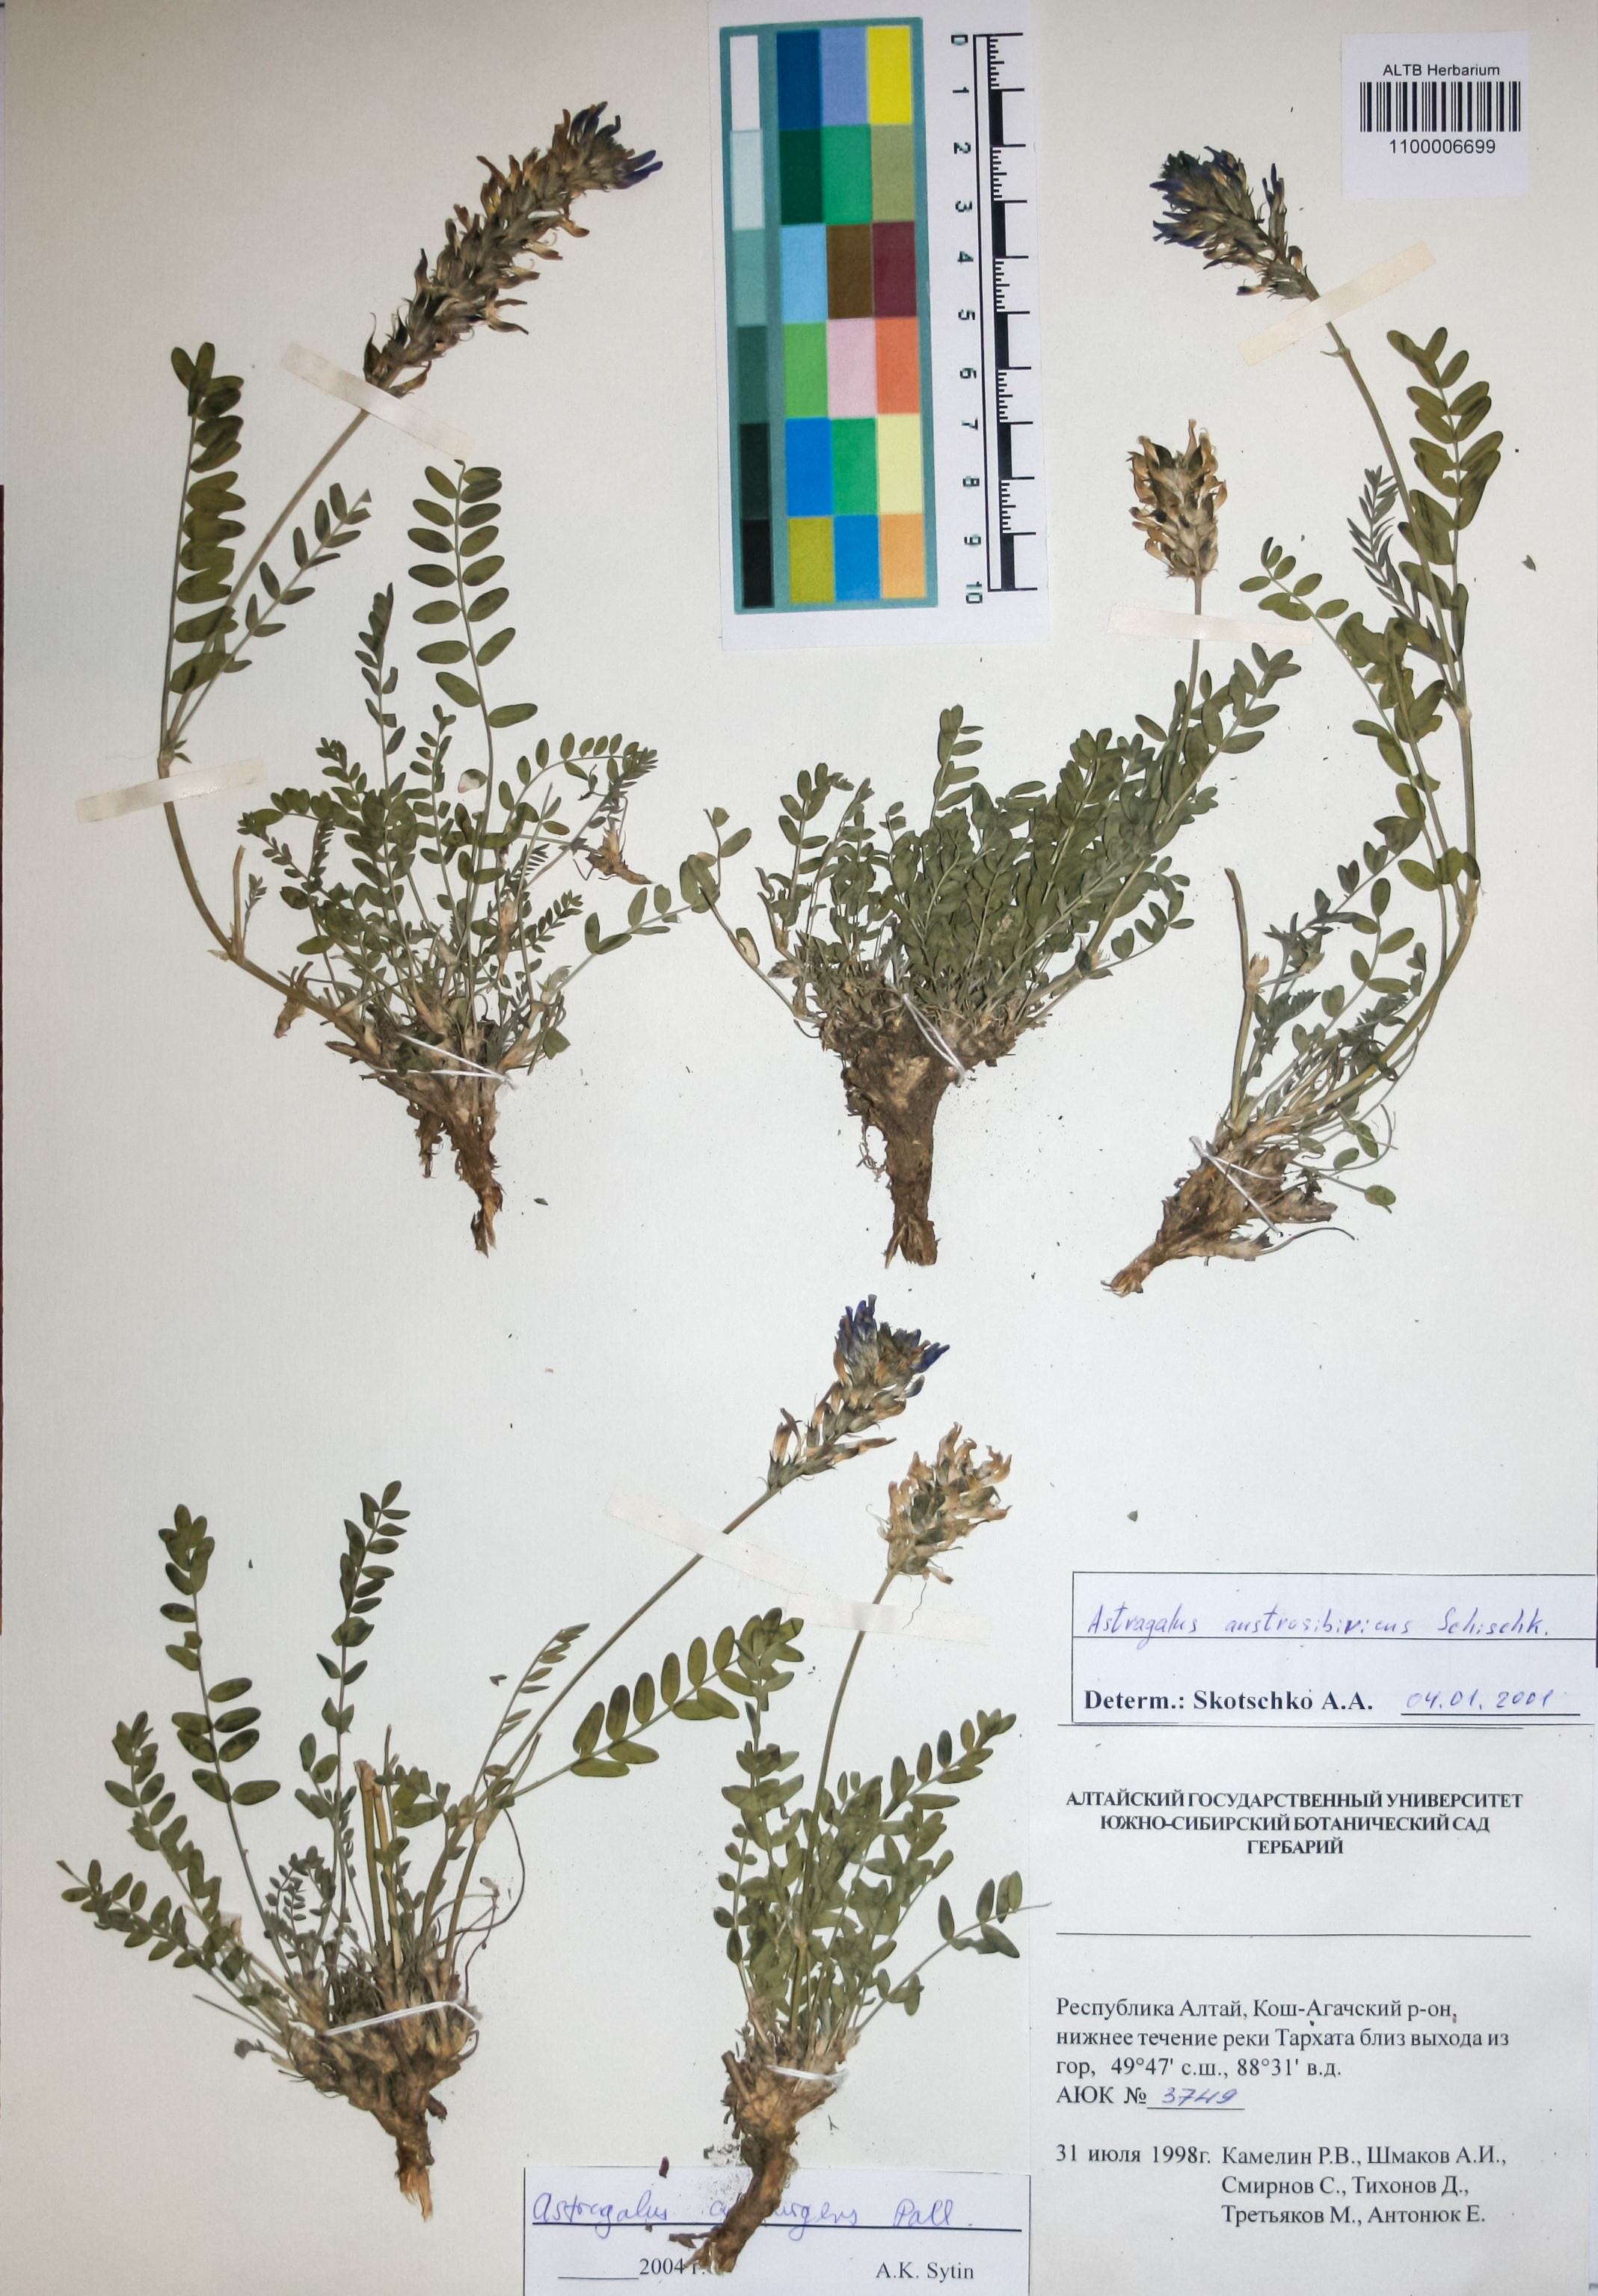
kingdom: Plantae
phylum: Tracheophyta
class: Magnoliopsida
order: Fabales
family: Fabaceae
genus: Astragalus
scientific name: Astragalus laxmannii
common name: Laxmann's milk-vetch
